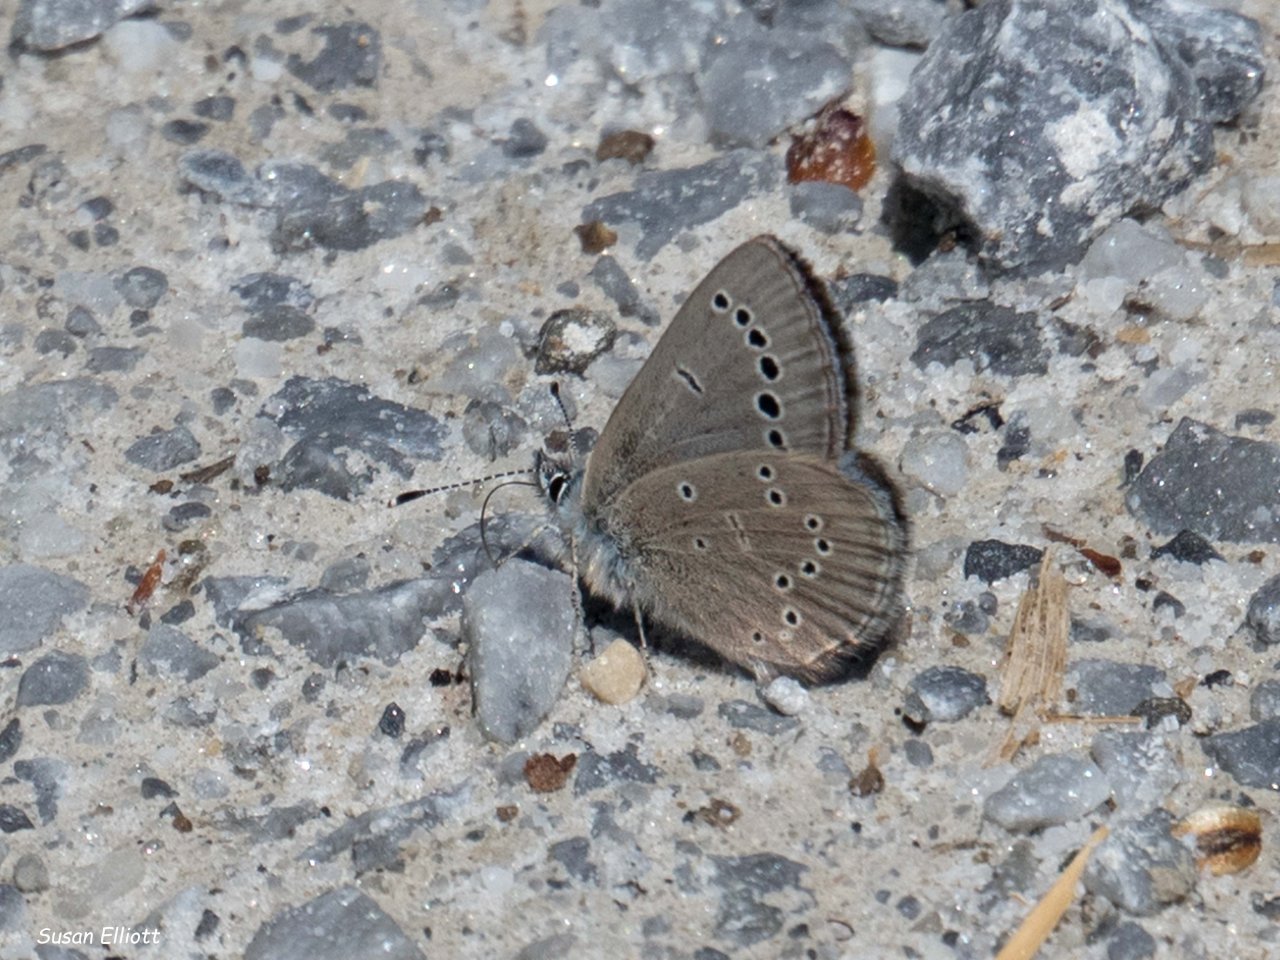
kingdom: Animalia
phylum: Arthropoda
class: Insecta
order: Lepidoptera
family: Lycaenidae
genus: Glaucopsyche
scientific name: Glaucopsyche lygdamus
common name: Silvery Blue
